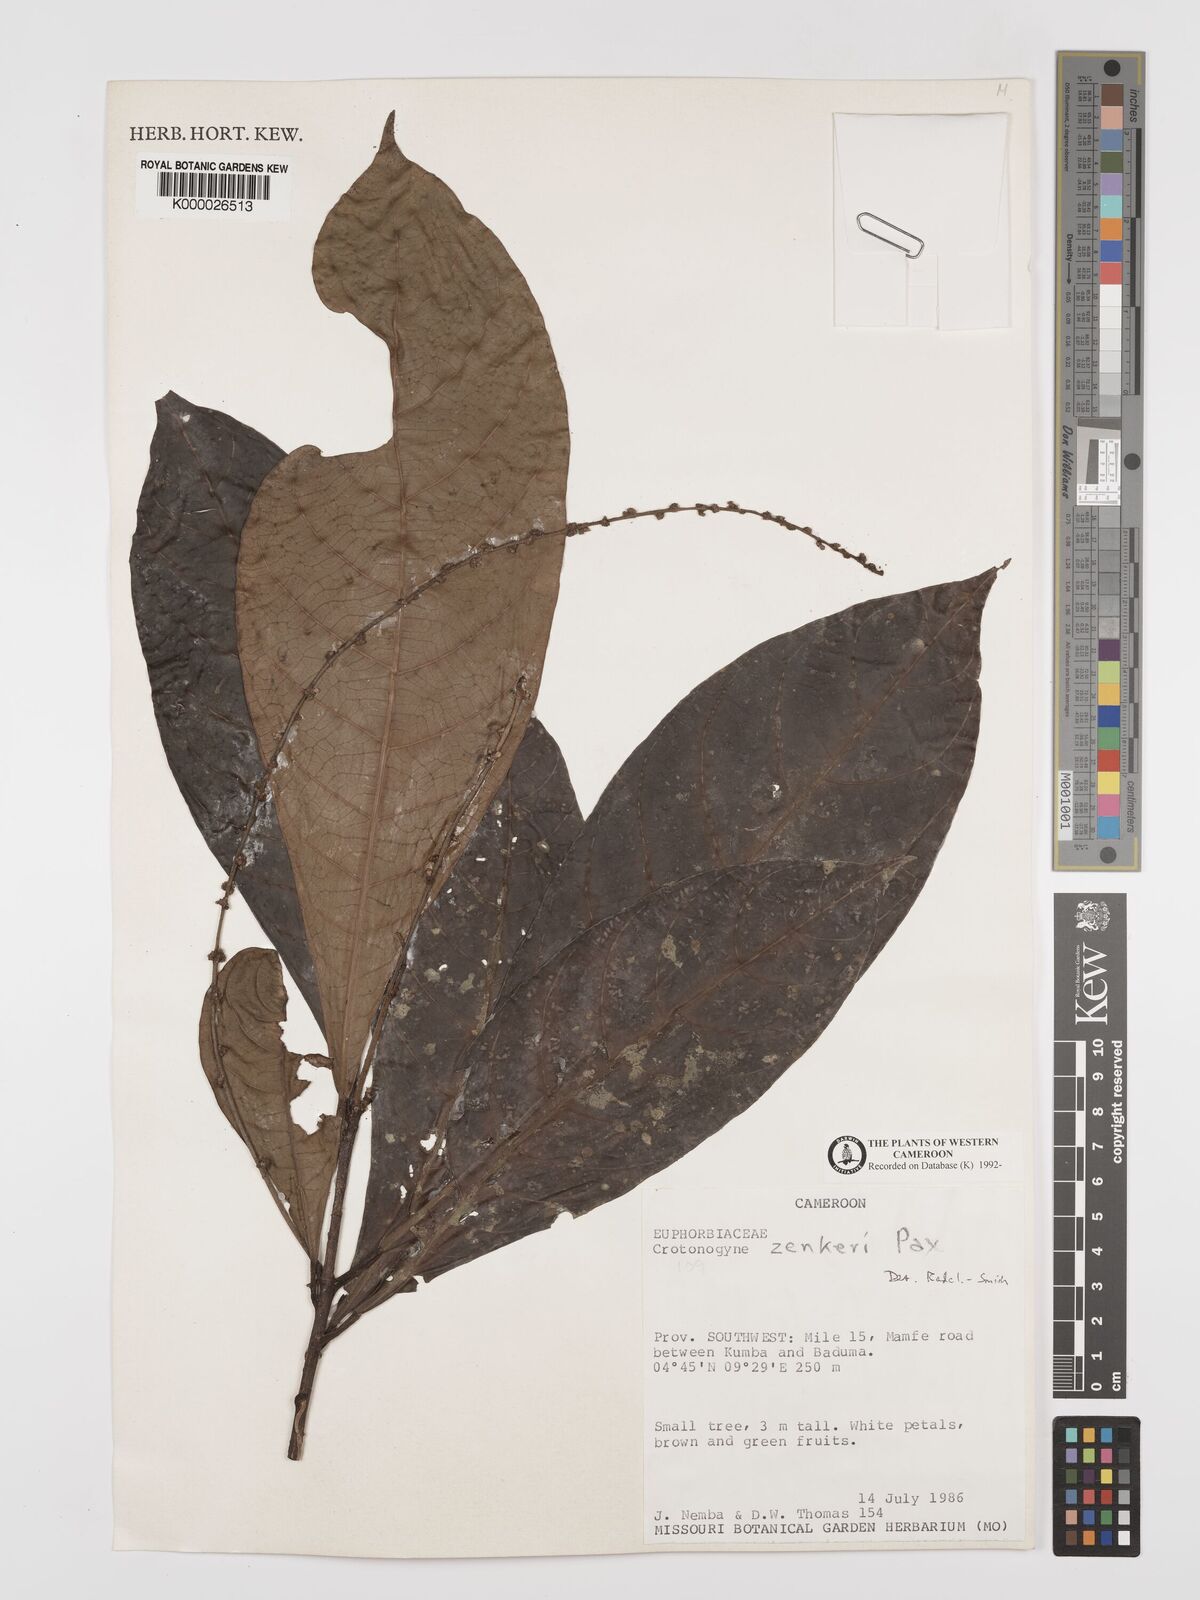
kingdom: Plantae
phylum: Tracheophyta
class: Magnoliopsida
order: Malpighiales
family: Euphorbiaceae
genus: Crotonogyne
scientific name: Crotonogyne zenkeri
